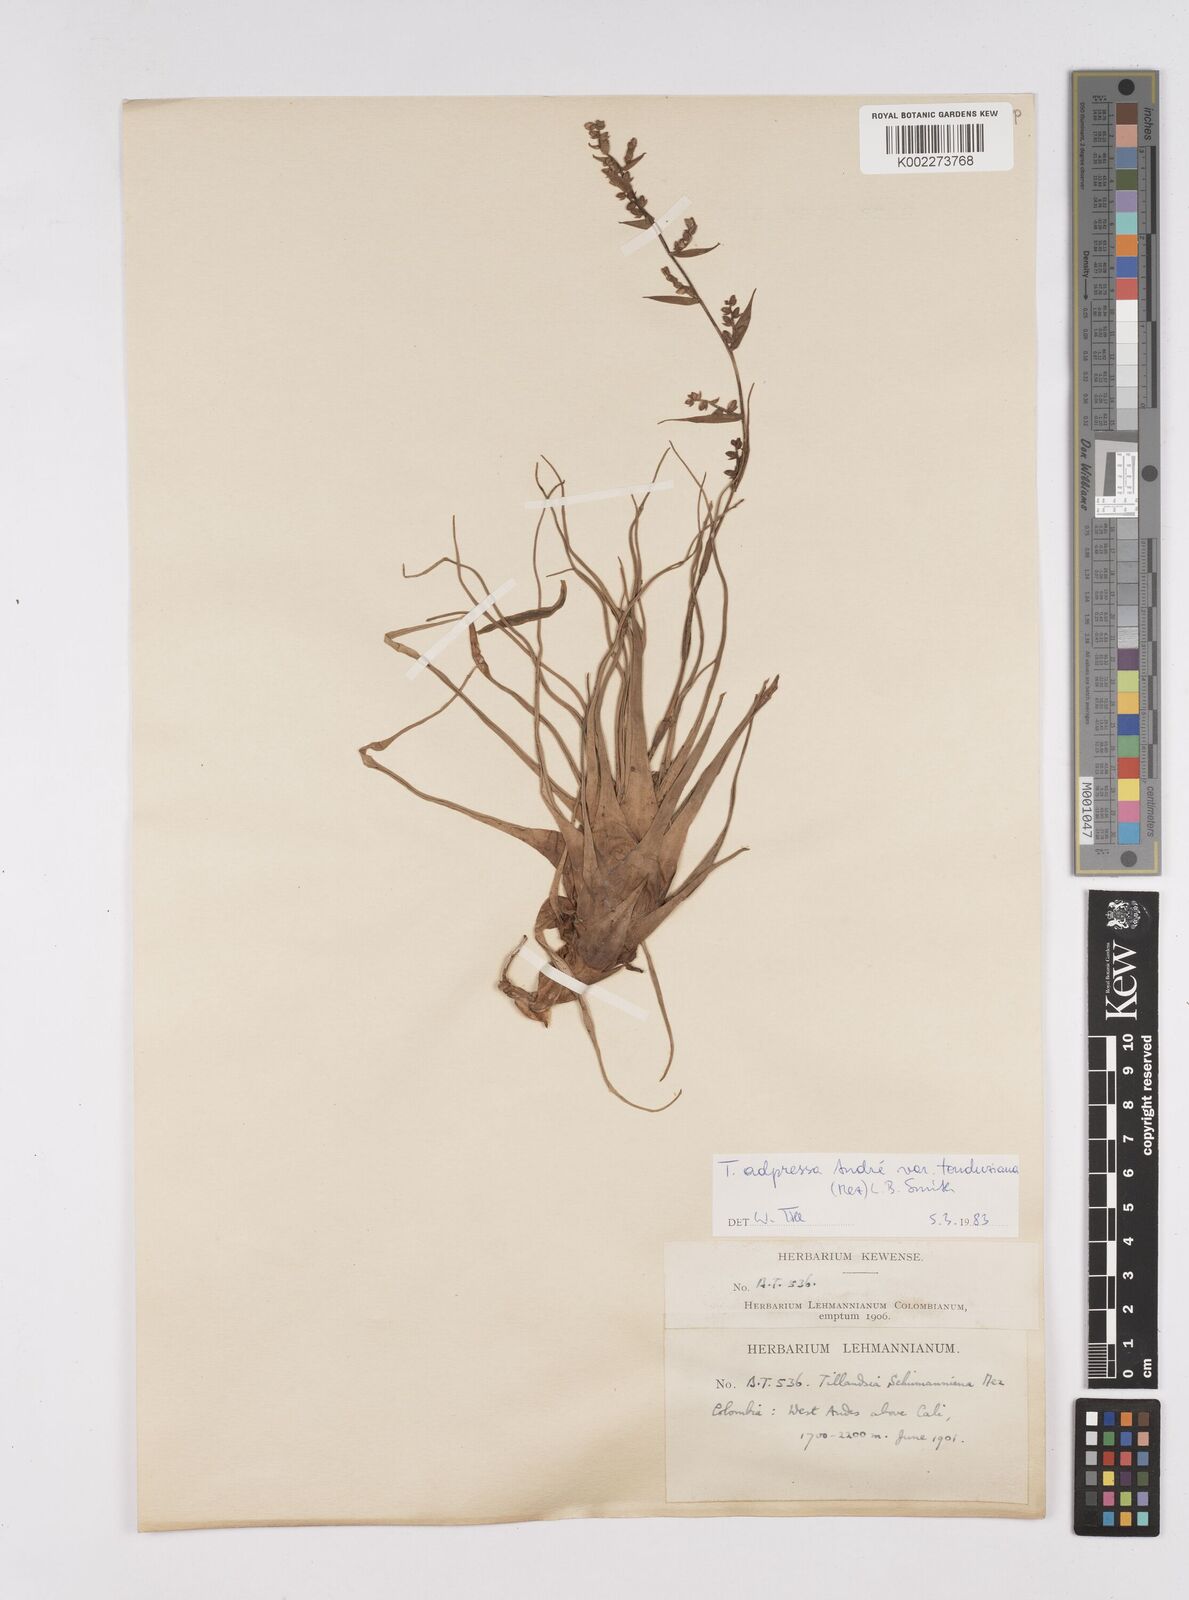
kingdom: Plantae
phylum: Tracheophyta
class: Liliopsida
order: Poales
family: Bromeliaceae
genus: Racinaea
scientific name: Racinaea schumanniana
